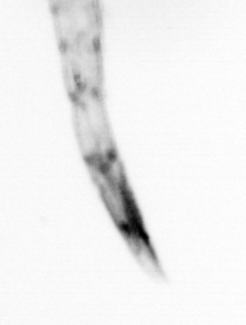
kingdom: Animalia
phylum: Arthropoda
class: Copepoda
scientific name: Copepoda
